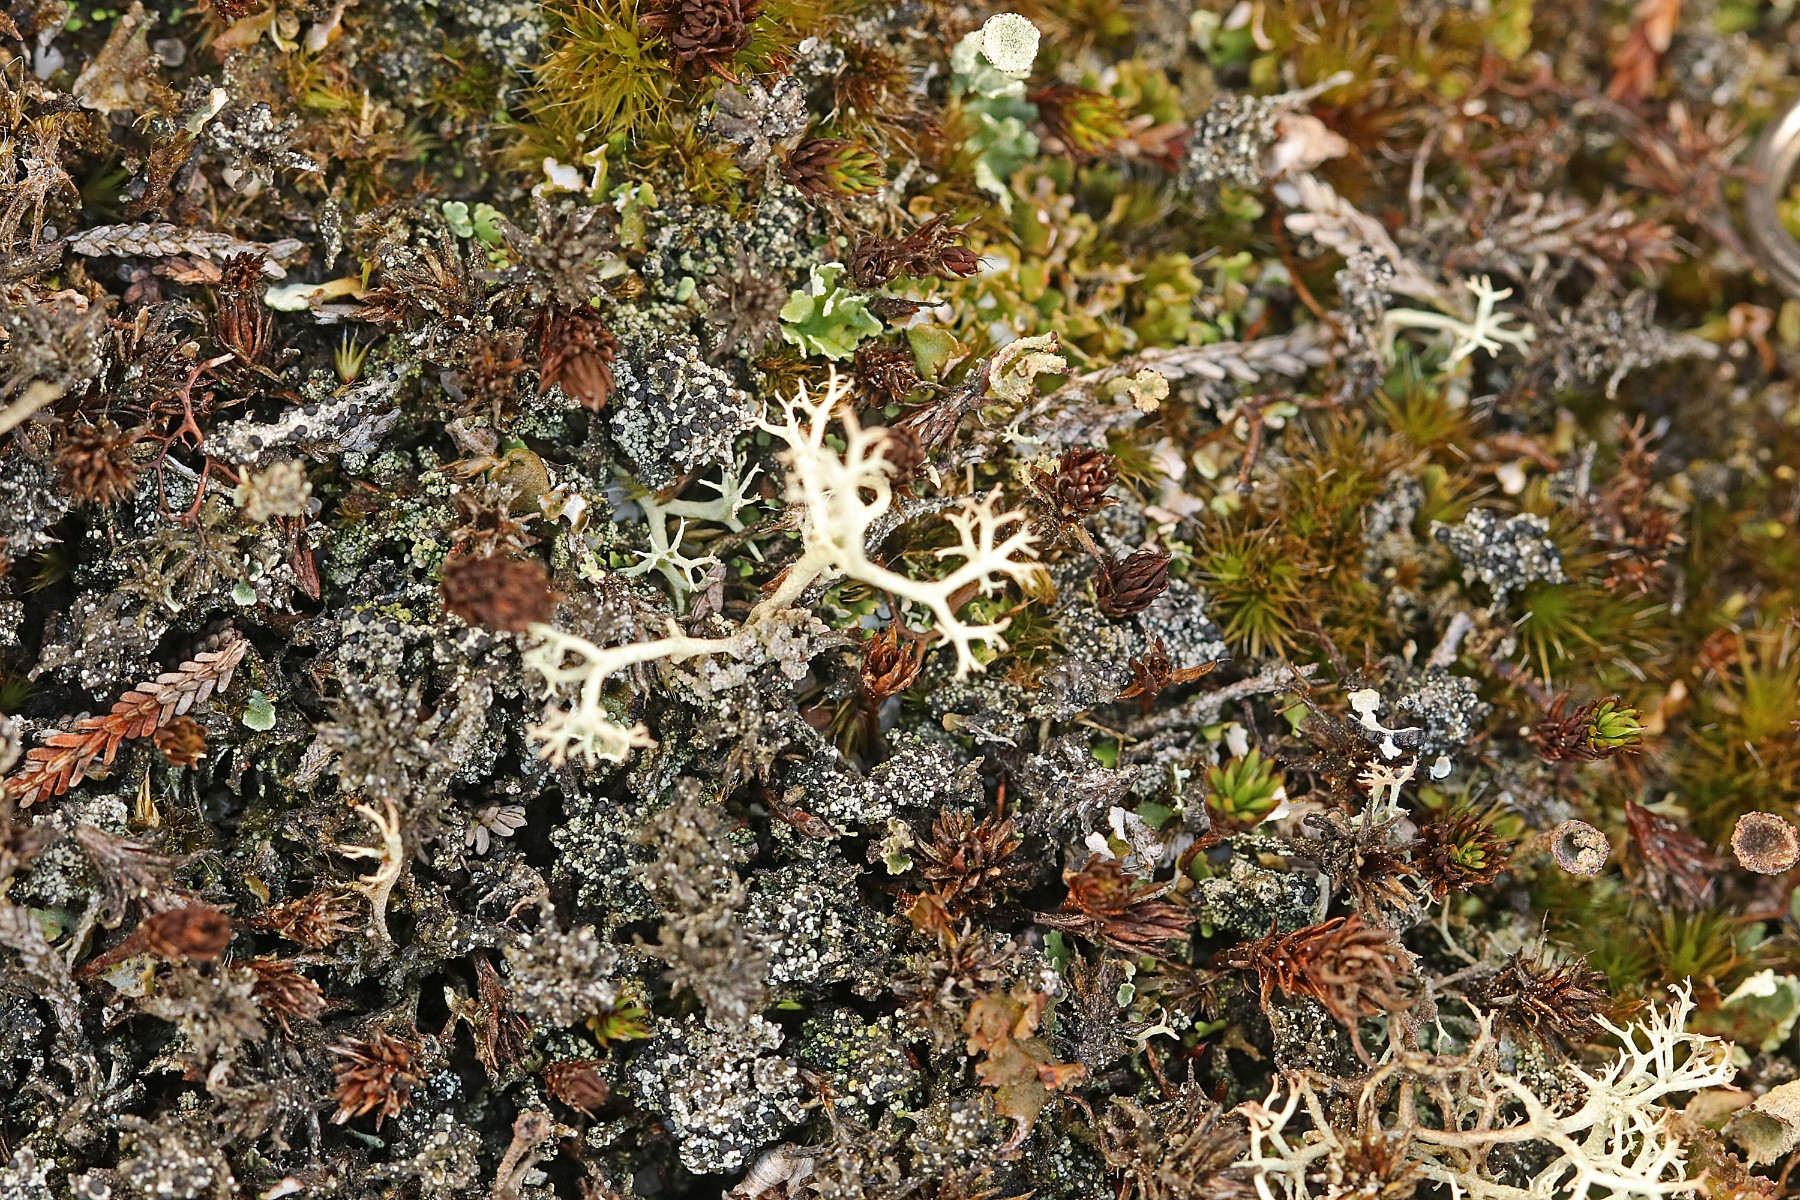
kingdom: Fungi
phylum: Ascomycota
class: Lecanoromycetes
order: Lecanorales
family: Byssolomataceae
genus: Micarea
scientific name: Micarea lignaria
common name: tørve-knaplav
